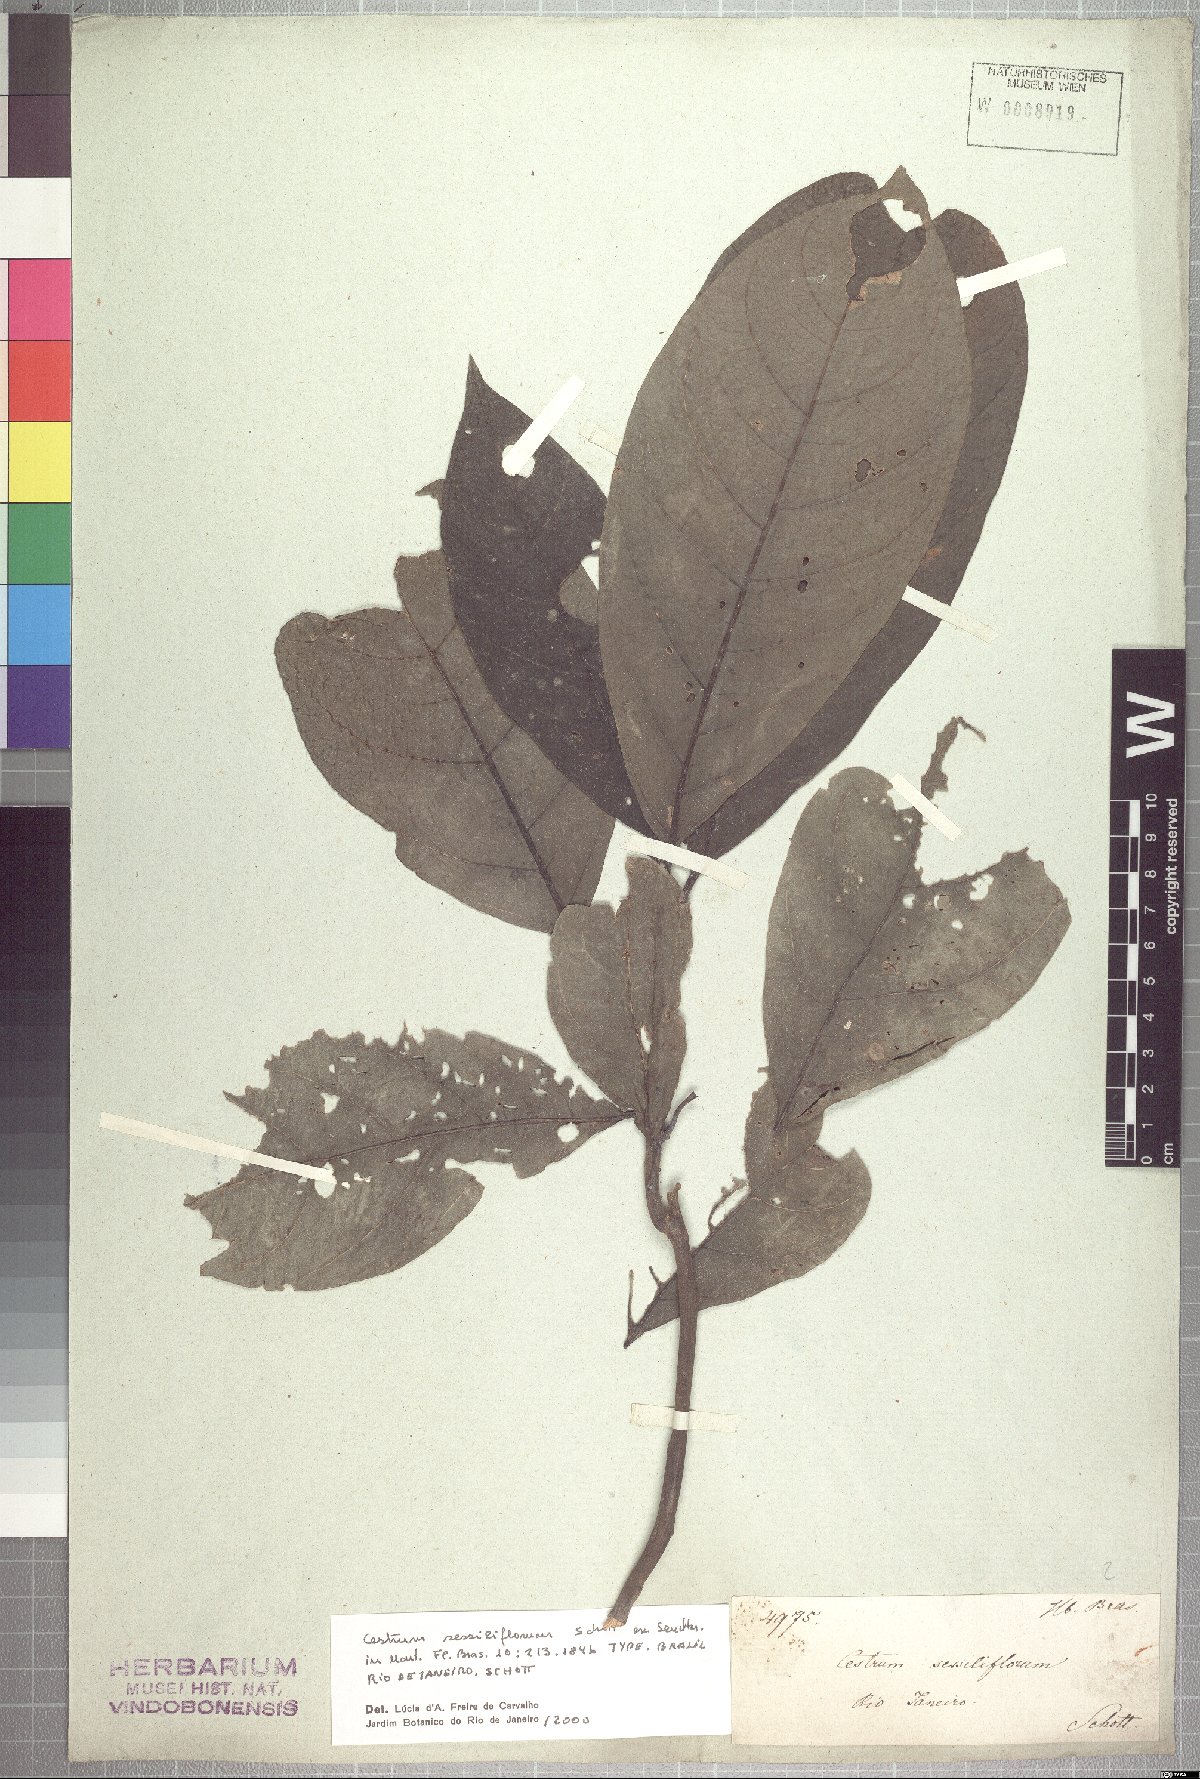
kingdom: Plantae
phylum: Tracheophyta
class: Magnoliopsida
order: Solanales
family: Solanaceae
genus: Cestrum
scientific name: Cestrum schlechtendalii
